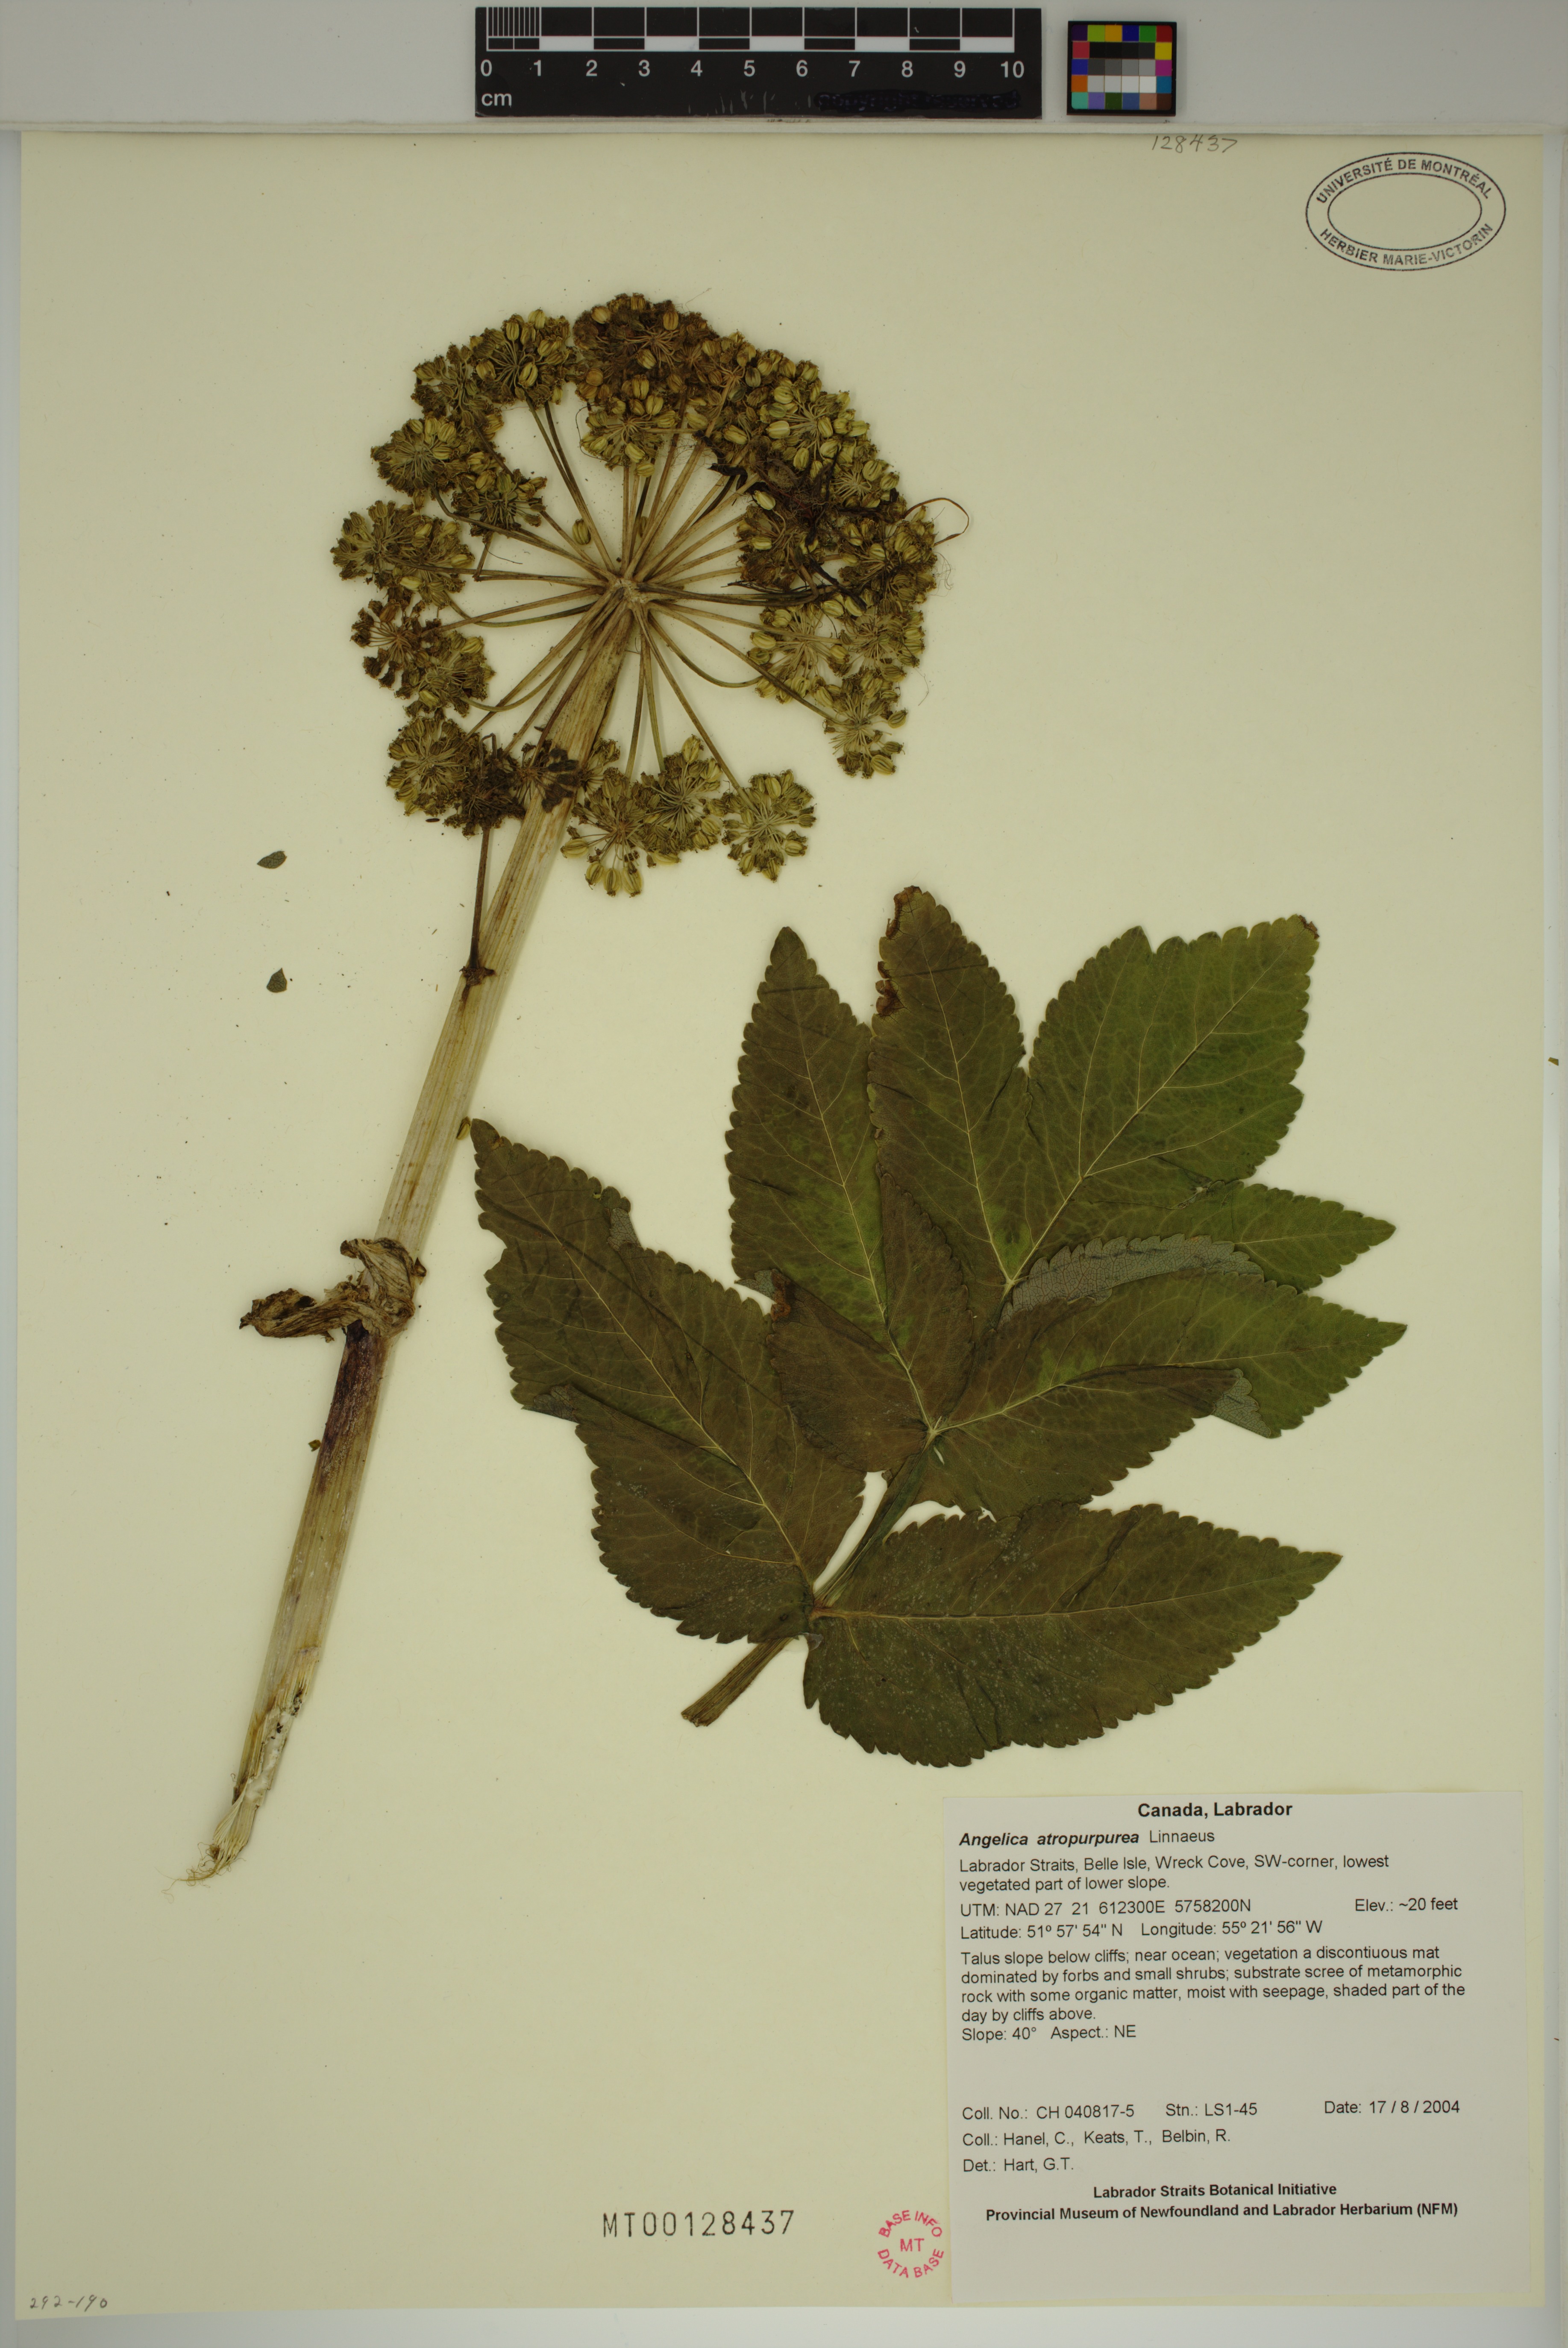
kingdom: Plantae
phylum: Tracheophyta
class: Magnoliopsida
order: Apiales
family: Apiaceae
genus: Angelica
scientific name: Angelica atropurpurea
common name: Great angelica
